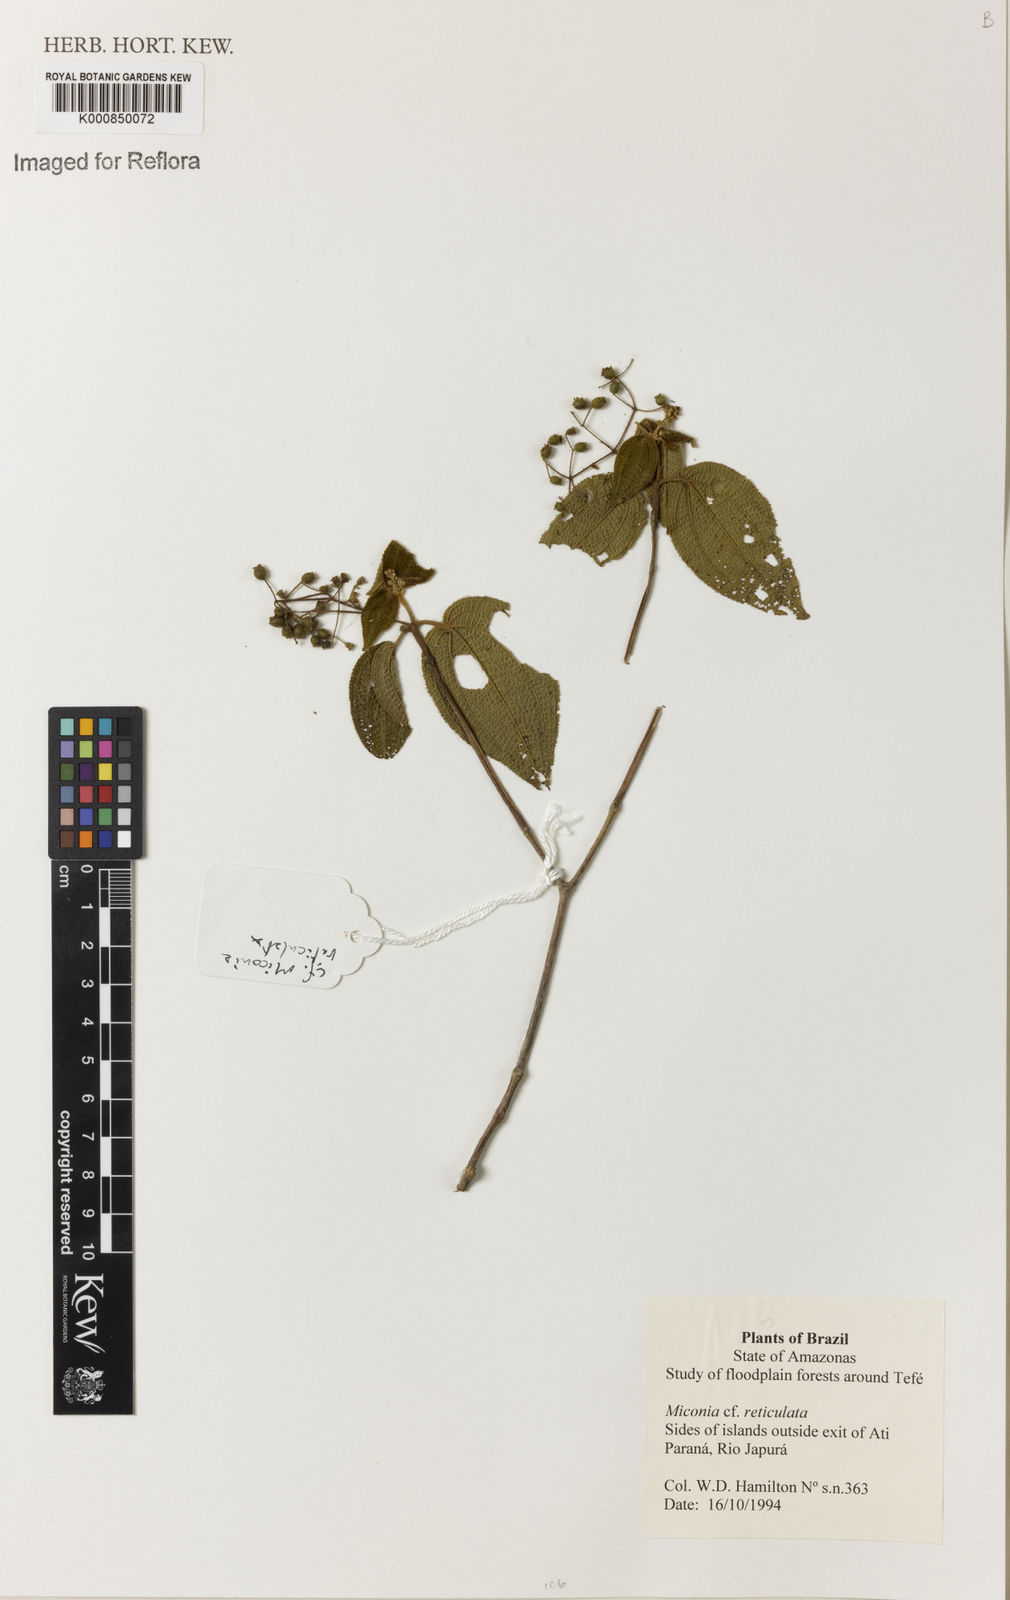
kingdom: Plantae
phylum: Tracheophyta
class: Magnoliopsida
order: Myrtales
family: Melastomataceae
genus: Miconia
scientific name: Miconia reticulata
